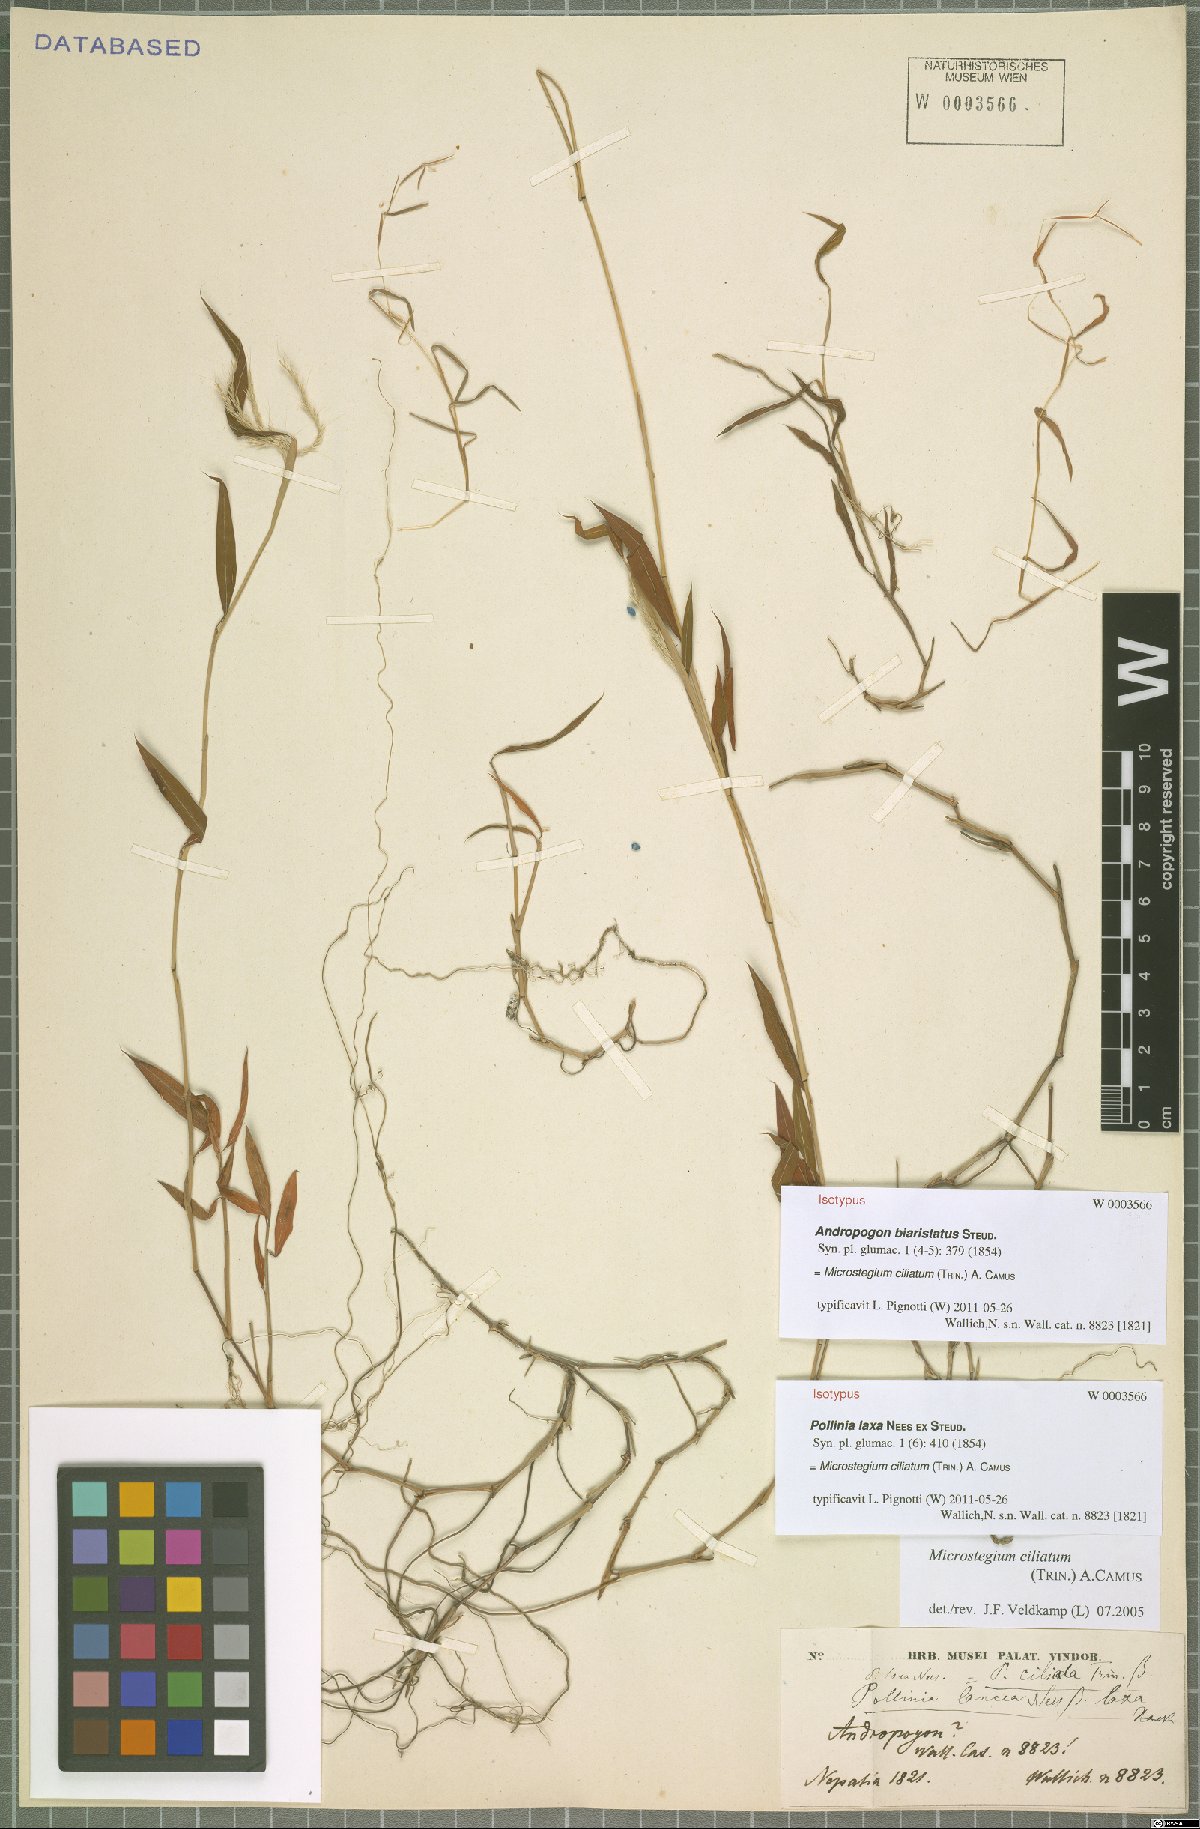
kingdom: Plantae
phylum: Tracheophyta
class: Liliopsida
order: Poales
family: Poaceae
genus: Microstegium
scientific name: Microstegium fasciculatum
